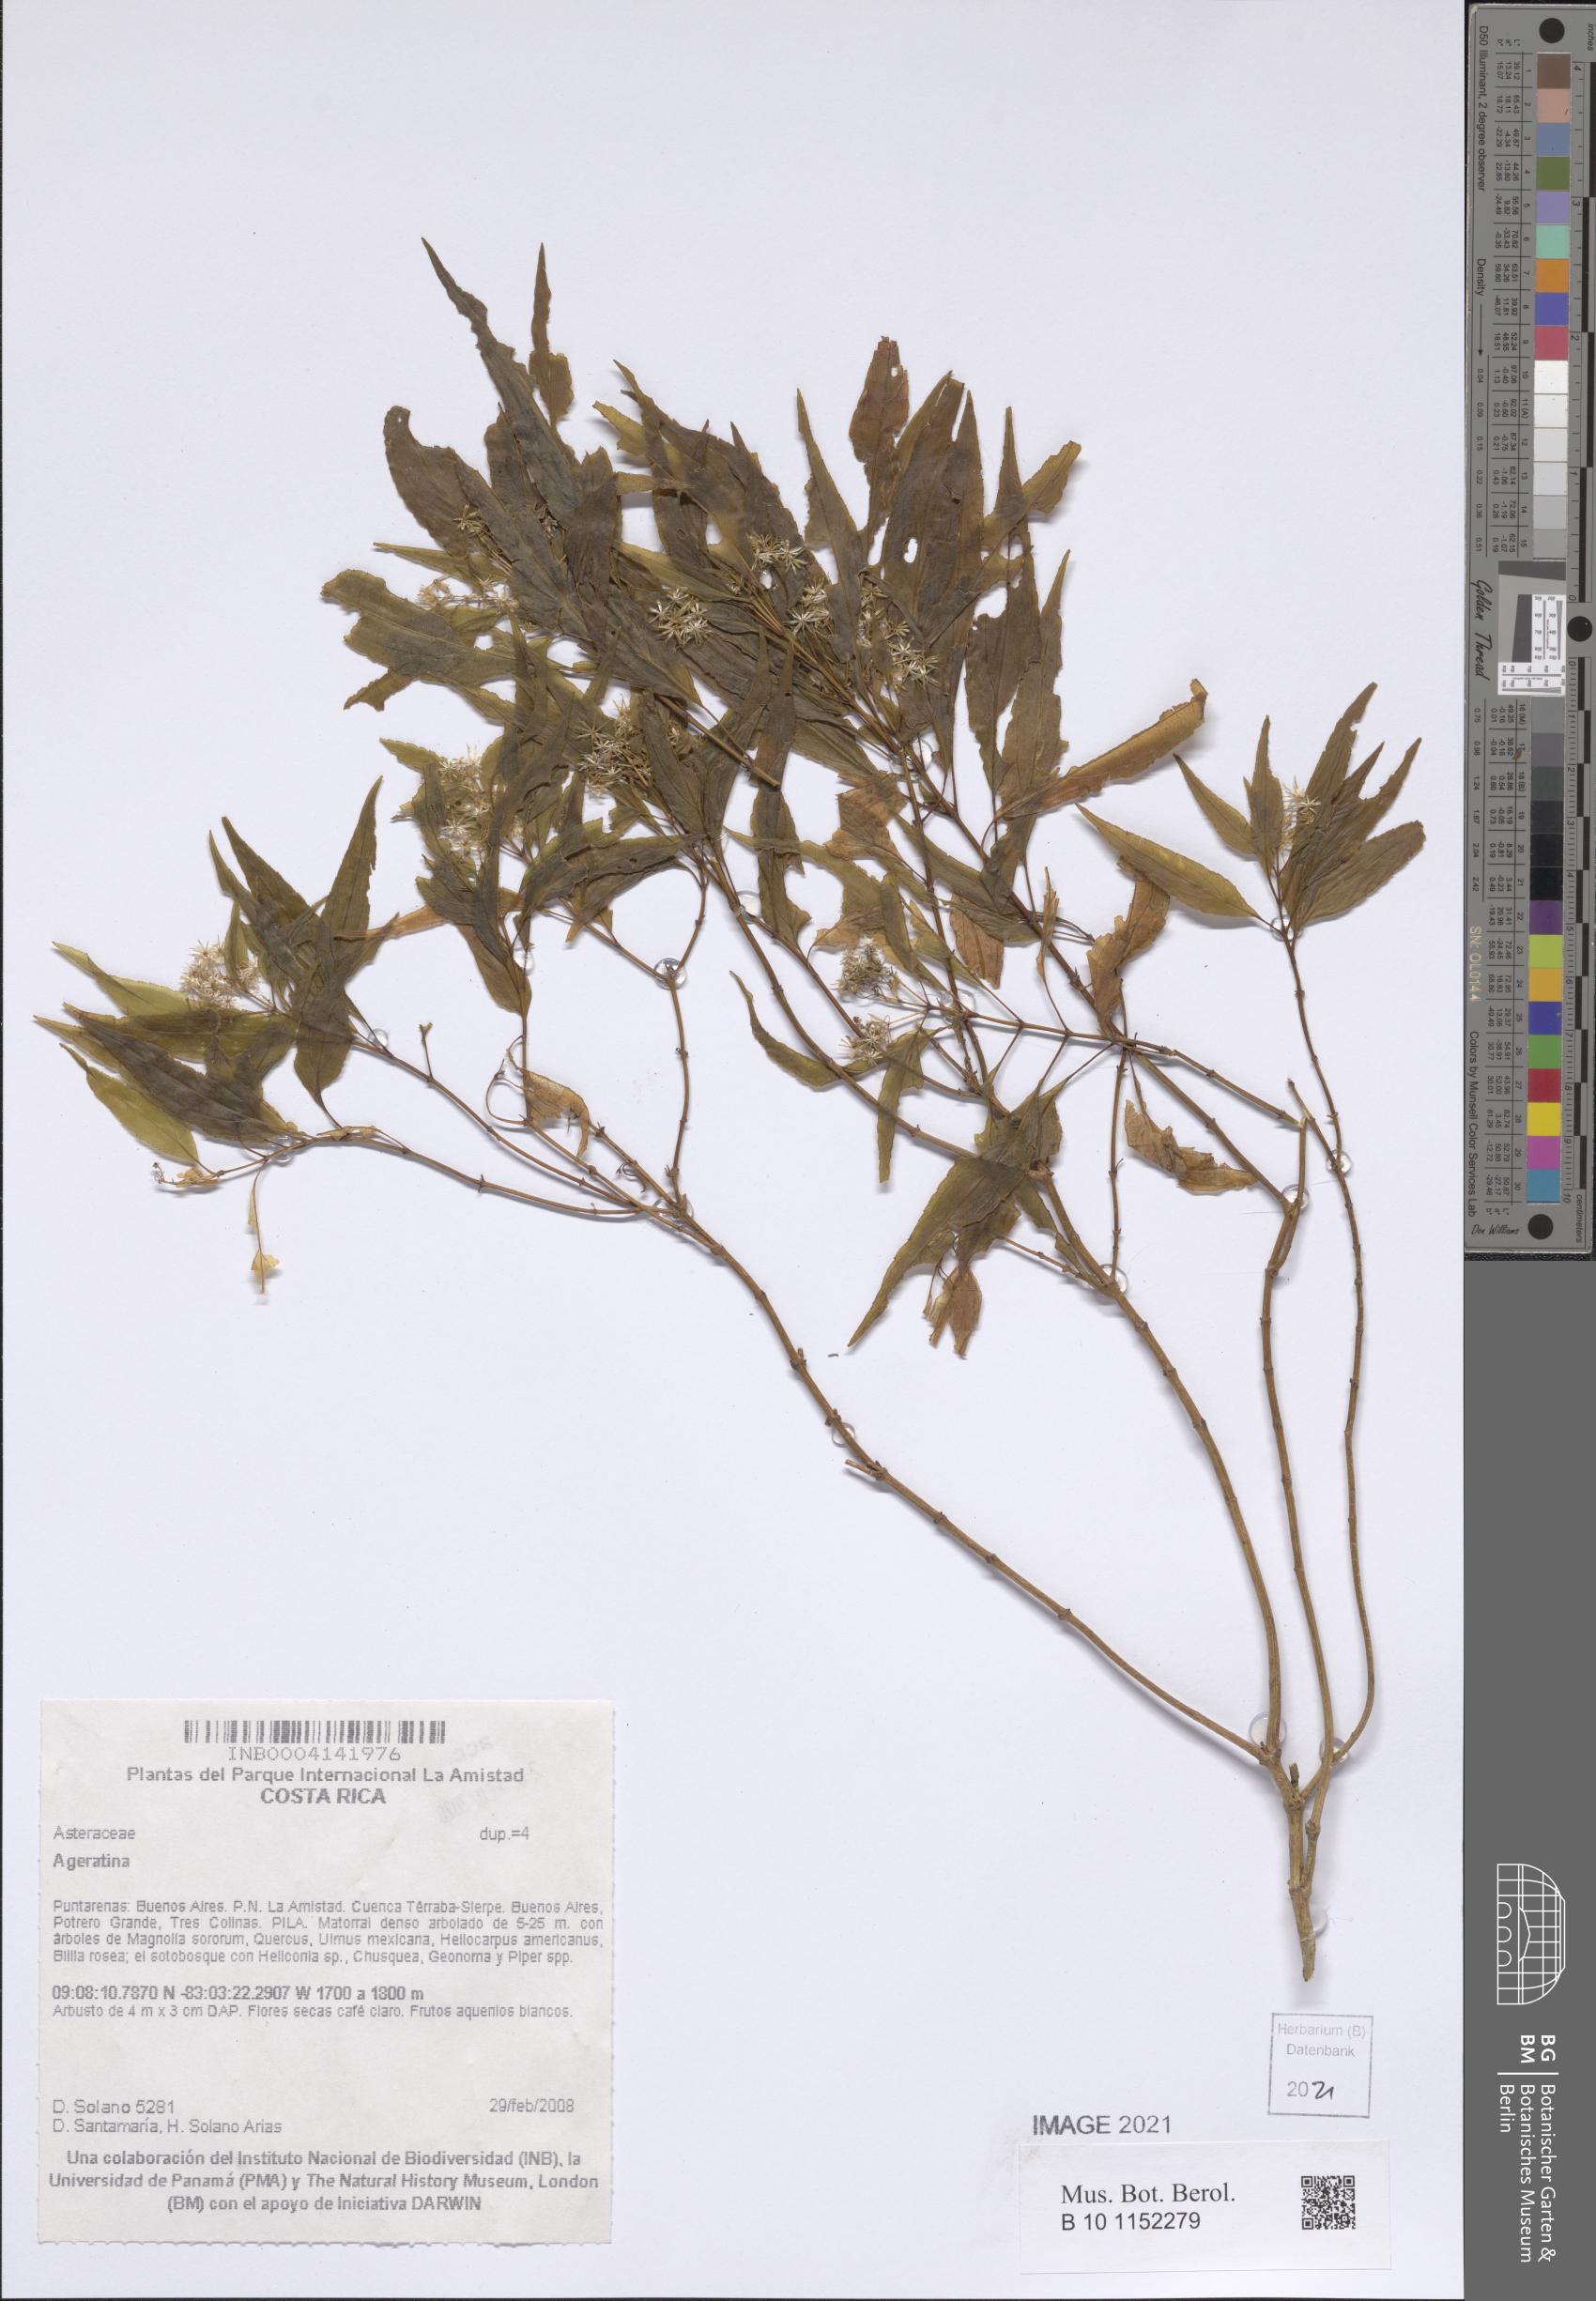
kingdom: Plantae
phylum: Tracheophyta
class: Magnoliopsida
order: Asterales
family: Asteraceae
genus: Ageratina
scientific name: Ageratina
